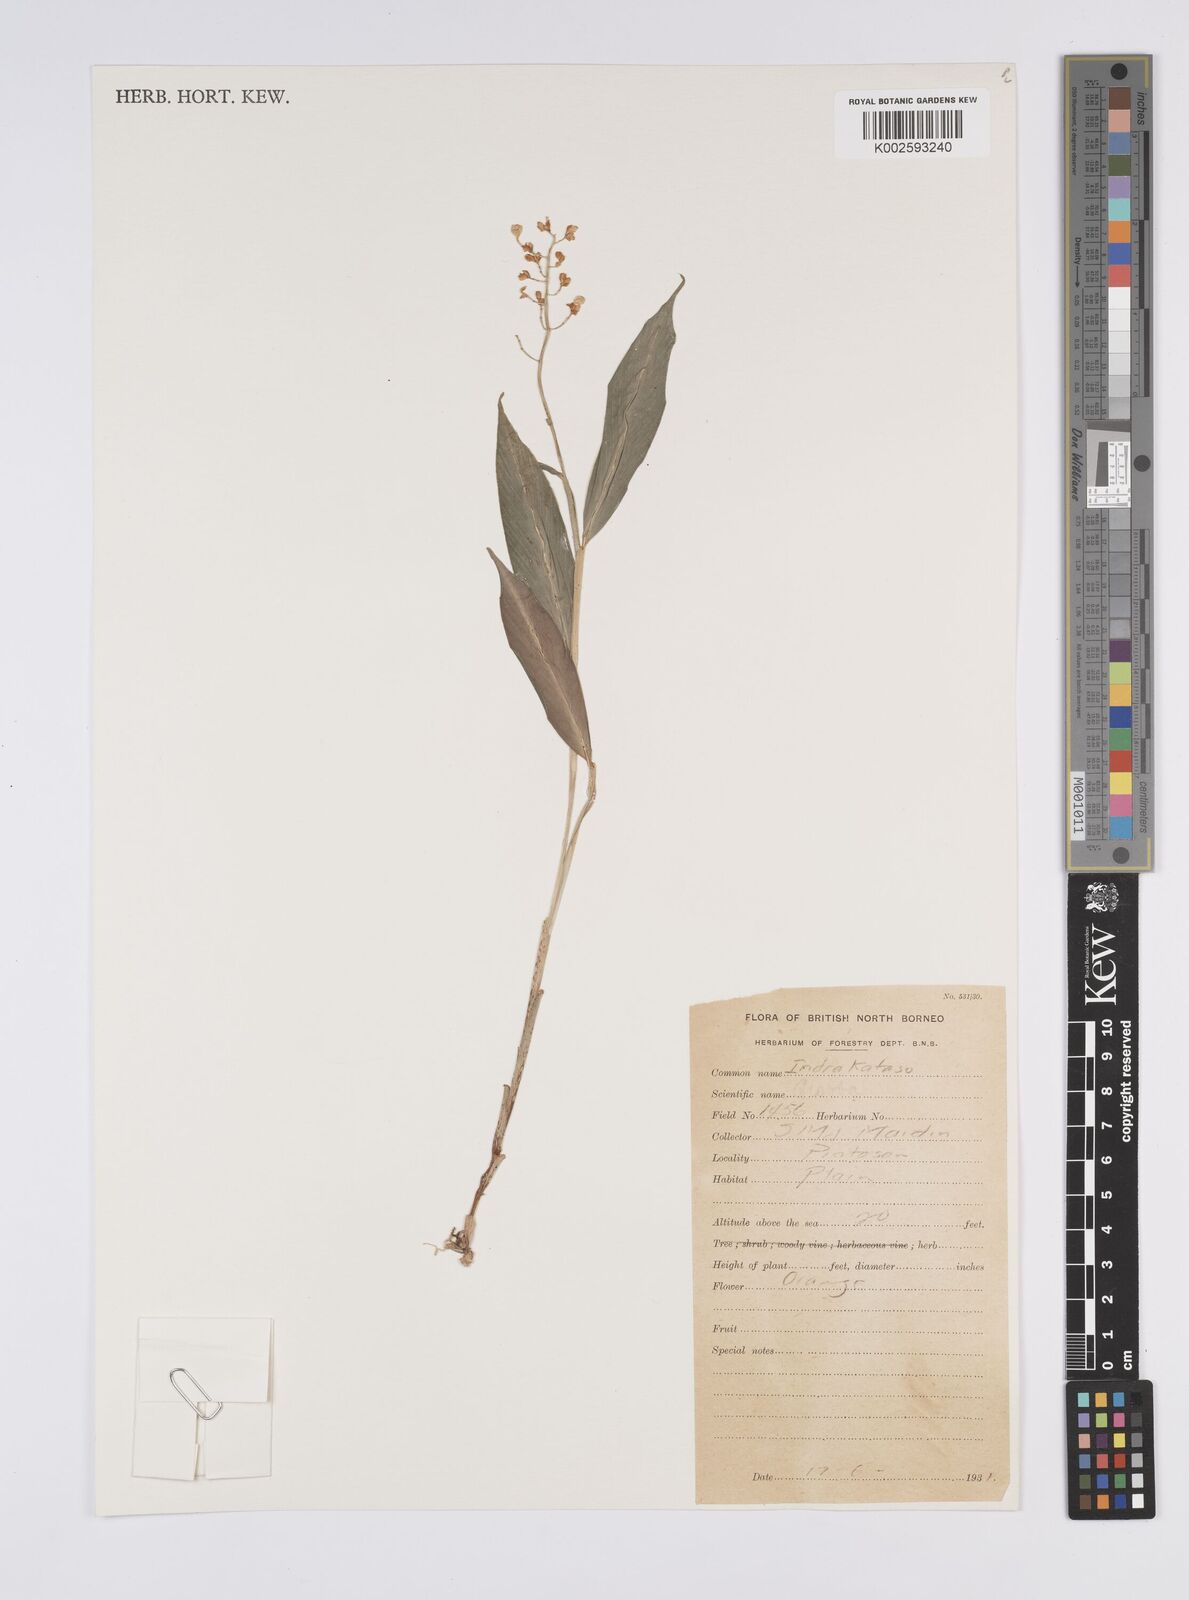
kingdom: Plantae
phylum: Tracheophyta
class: Liliopsida
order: Zingiberales
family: Zingiberaceae
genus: Globba
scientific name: Globba
